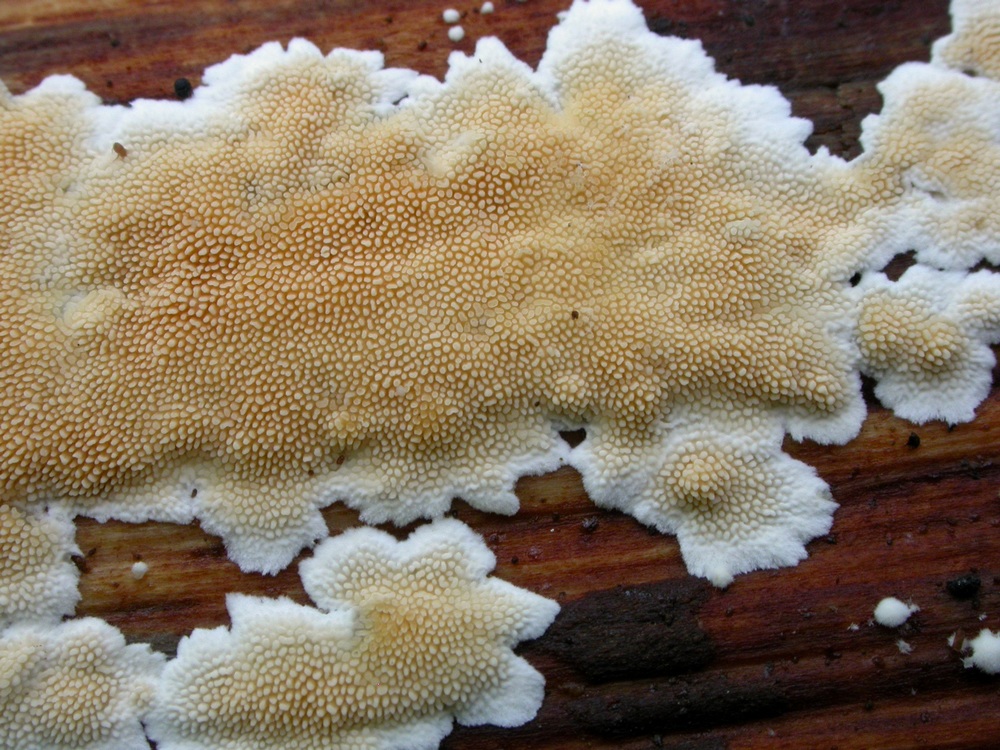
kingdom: Fungi
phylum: Basidiomycota
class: Agaricomycetes
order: Polyporales
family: Steccherinaceae
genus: Steccherinum
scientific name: Steccherinum ochraceum
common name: almindelig skønpig
